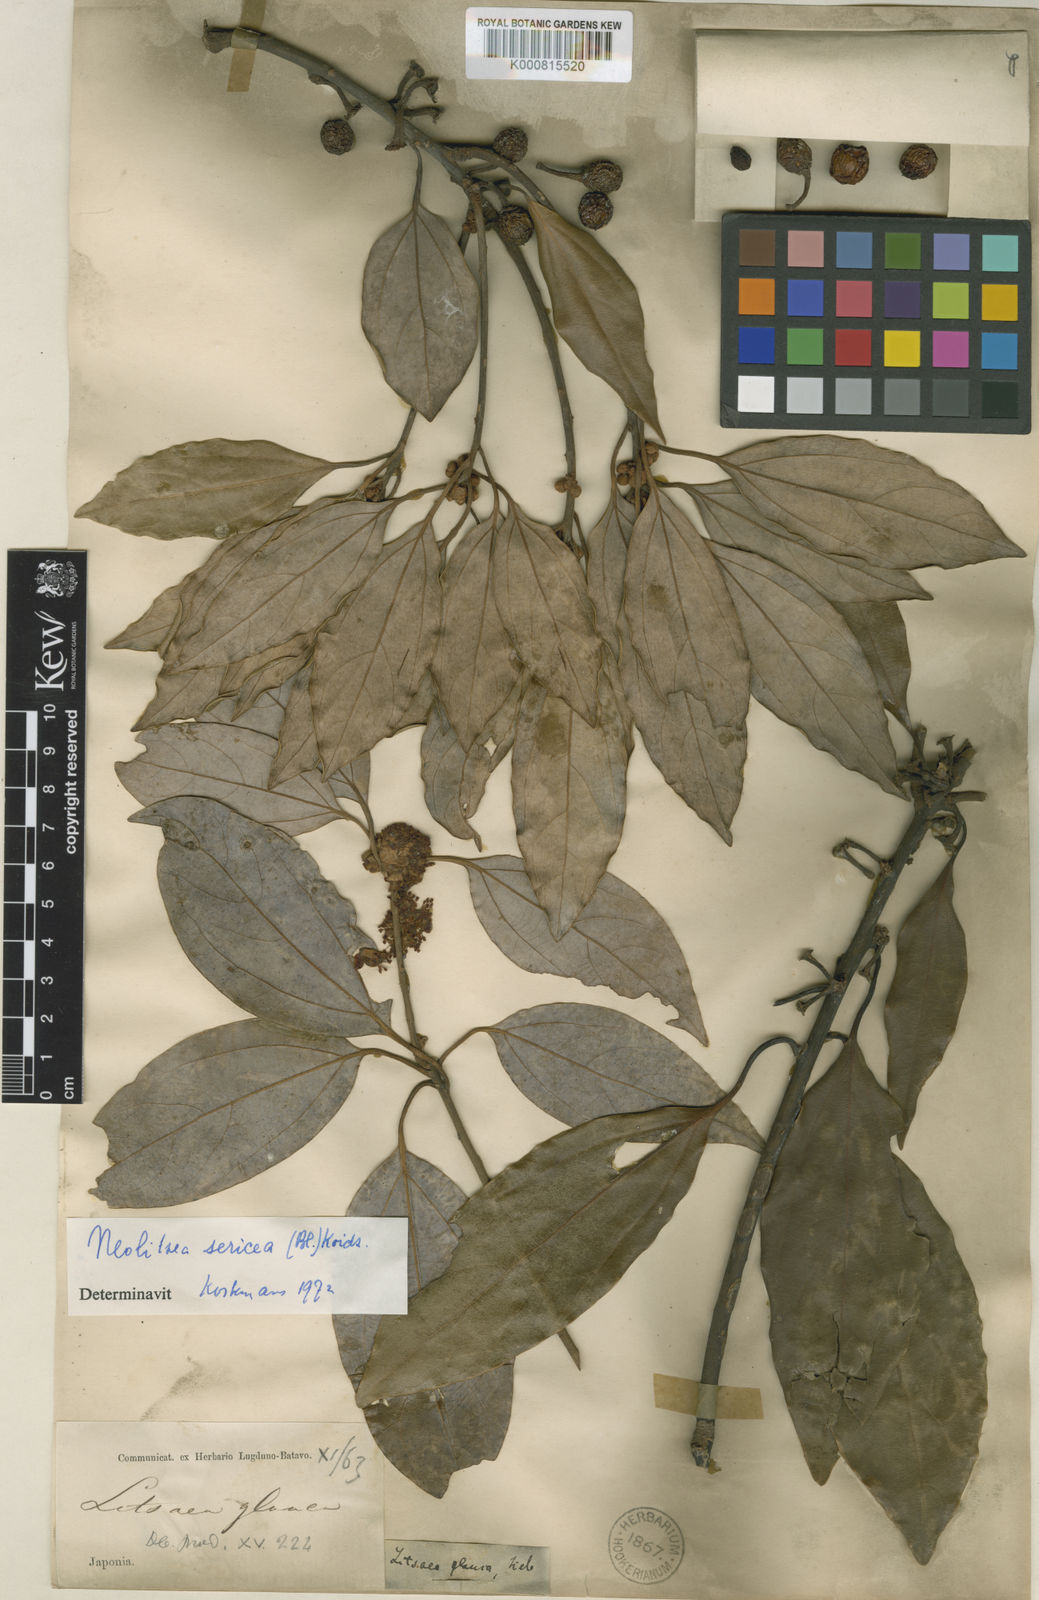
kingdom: Plantae
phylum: Tracheophyta
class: Magnoliopsida
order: Laurales
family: Lauraceae
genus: Neolitsea
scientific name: Neolitsea sericea
